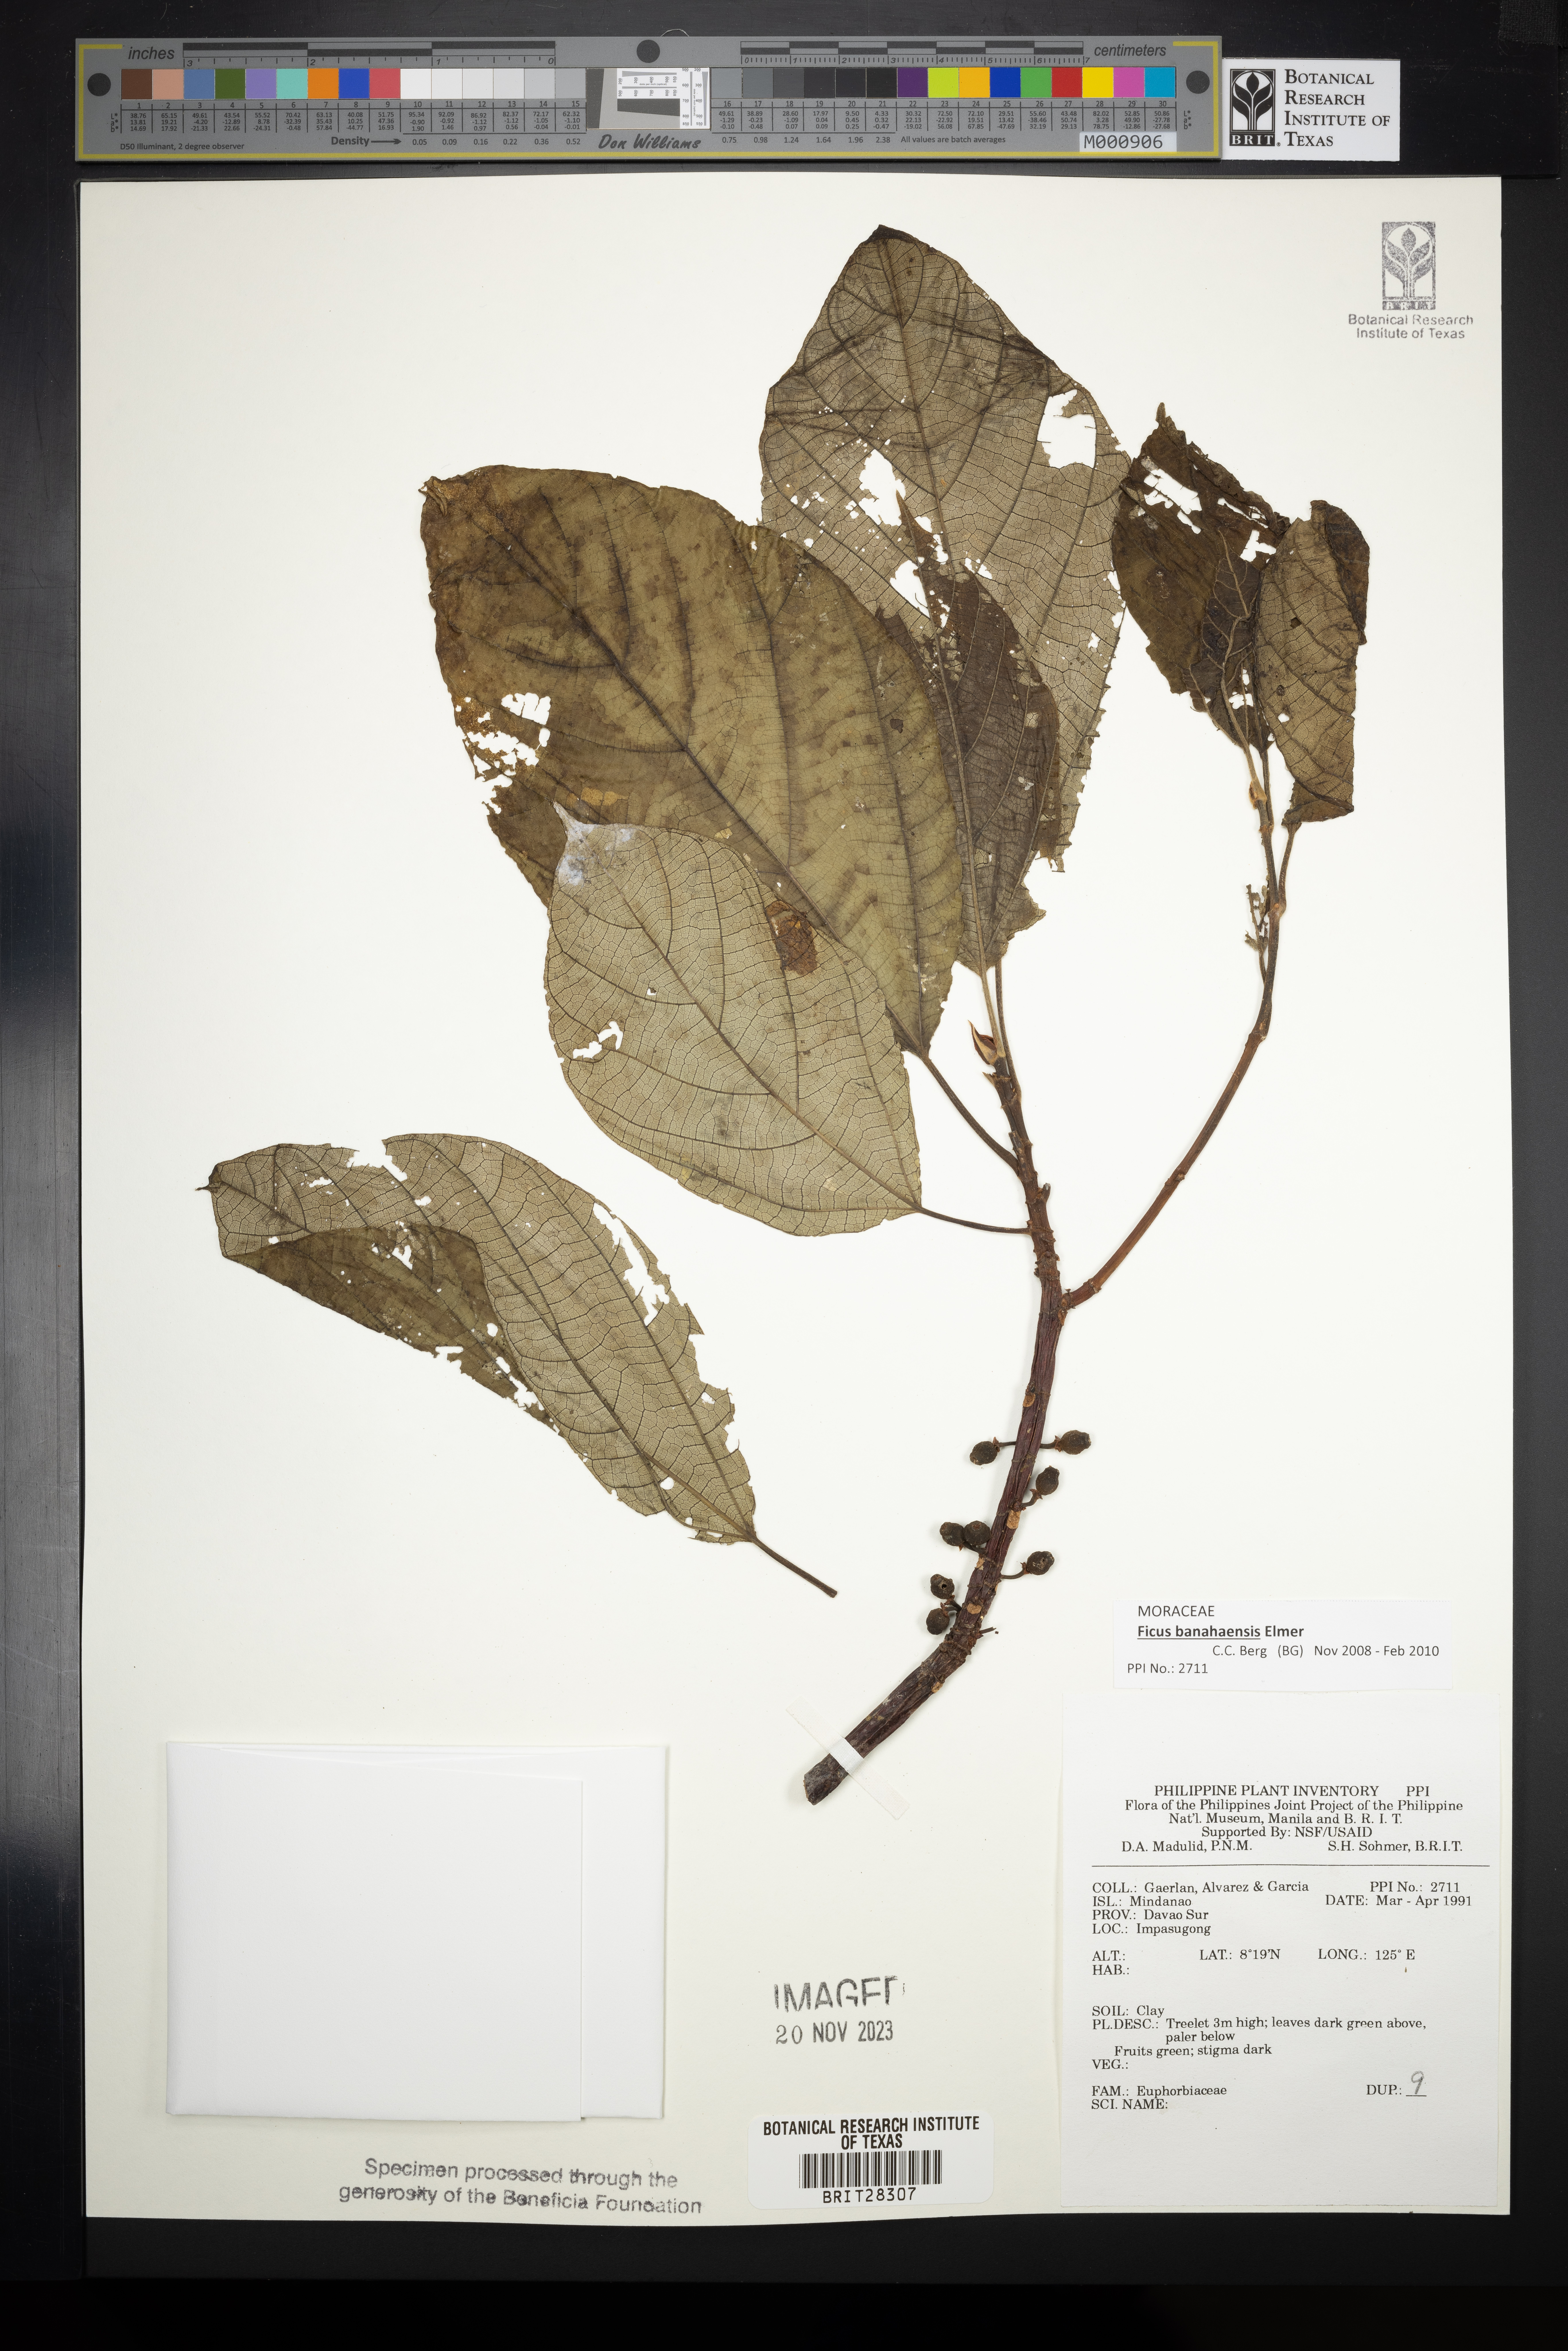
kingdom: Plantae
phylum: Tracheophyta
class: Magnoliopsida
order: Malpighiales
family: Euphorbiaceae
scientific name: Euphorbiaceae
